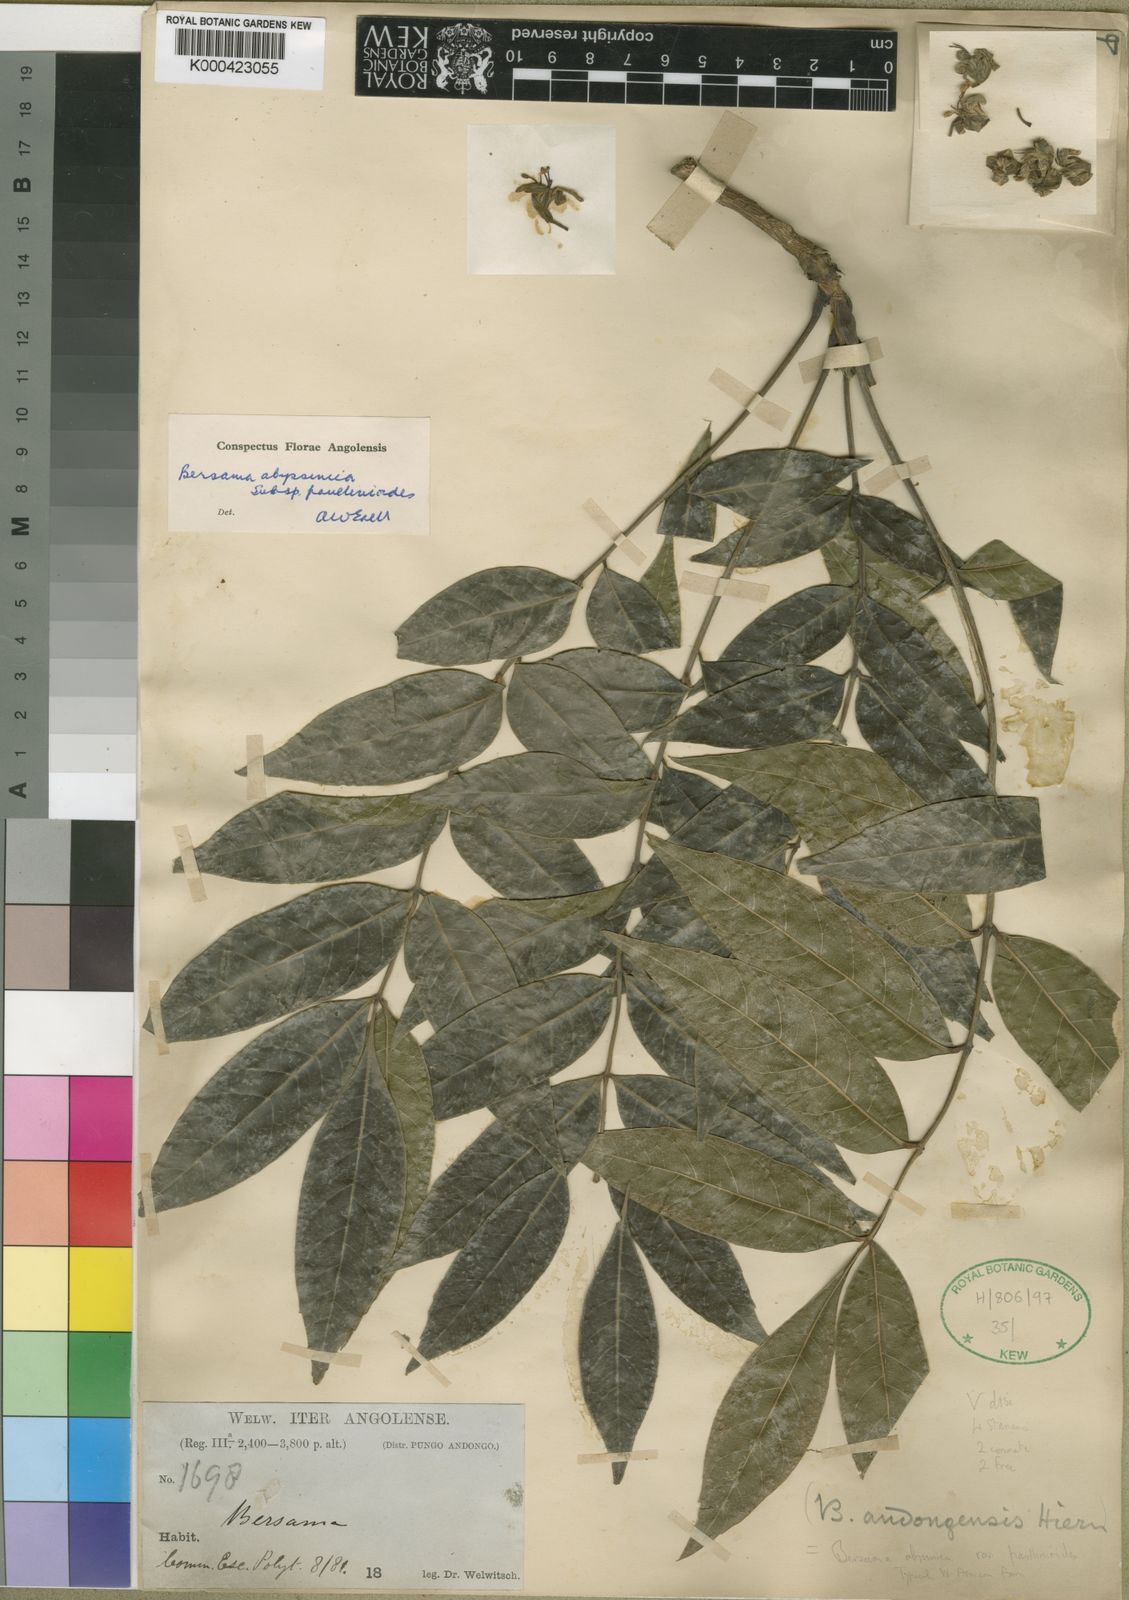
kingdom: Plantae
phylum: Tracheophyta
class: Magnoliopsida
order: Geraniales
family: Melianthaceae
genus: Bersama
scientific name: Bersama abyssinica
